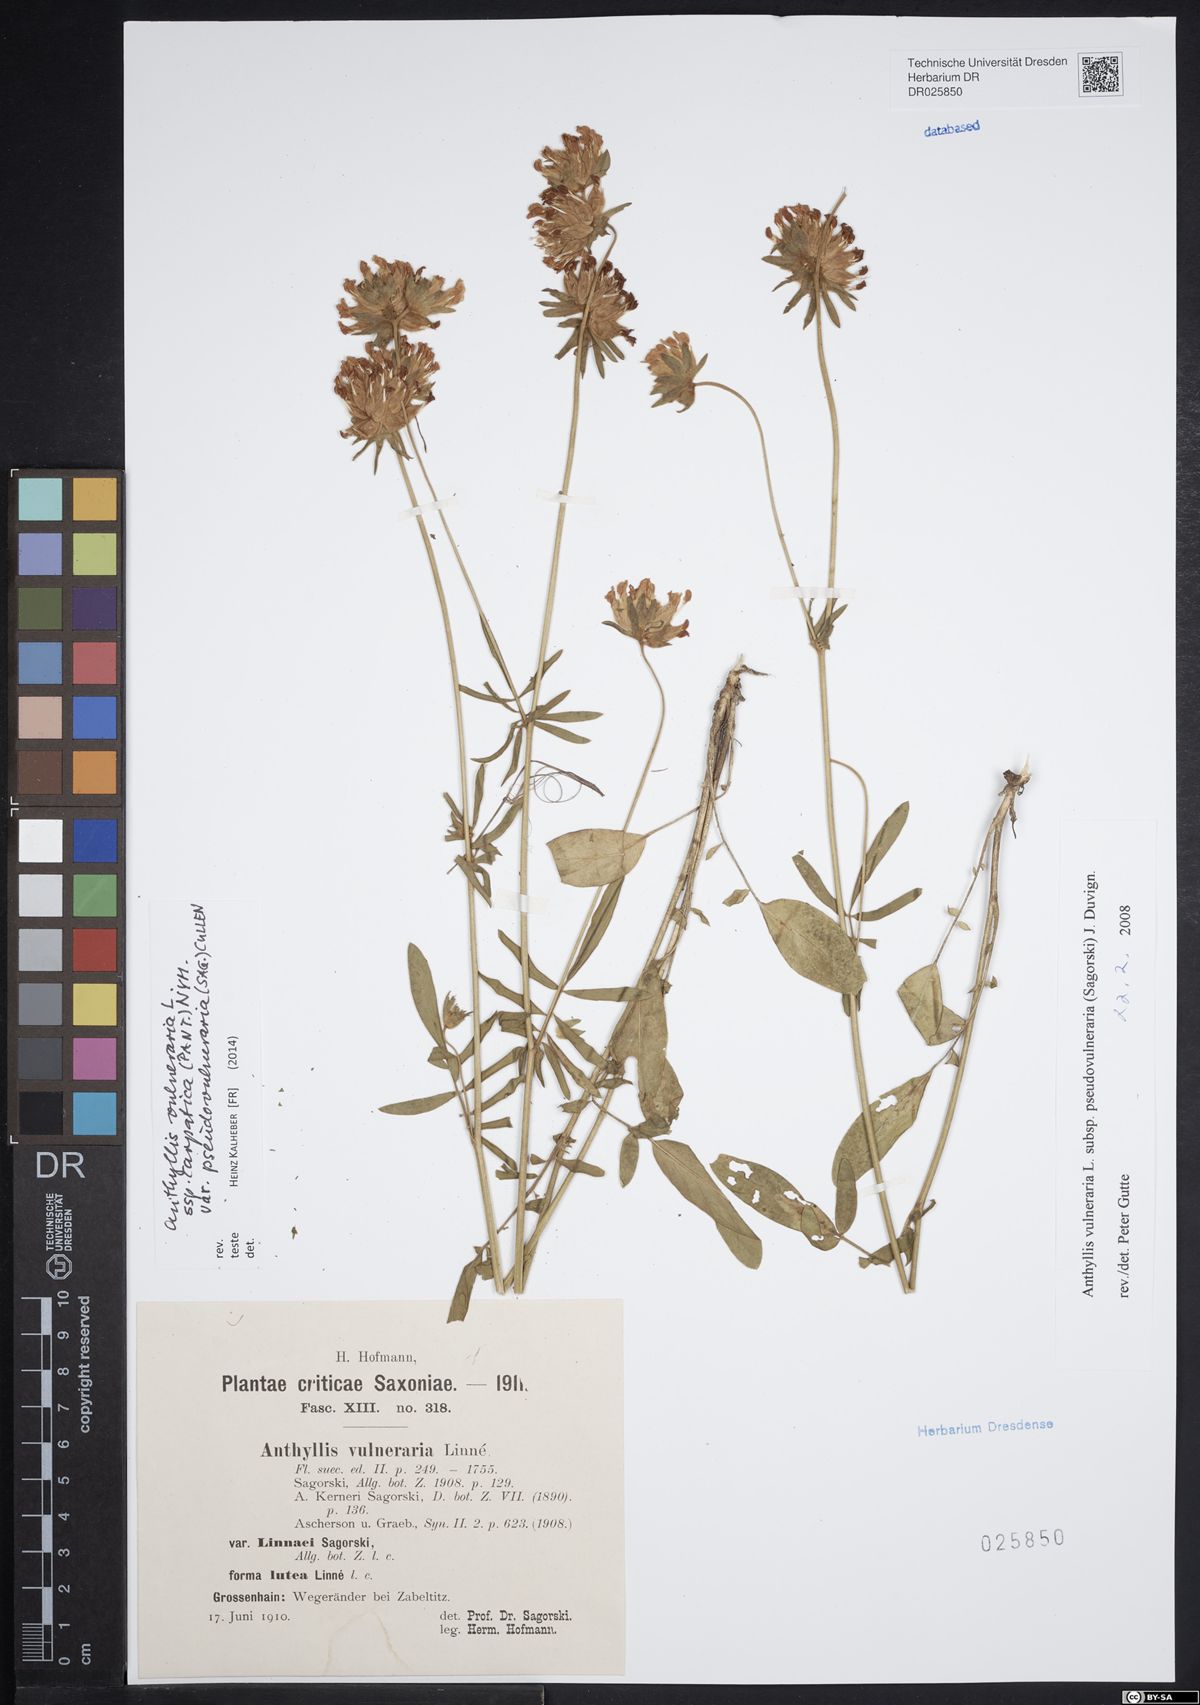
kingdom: Plantae
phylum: Tracheophyta
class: Magnoliopsida
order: Fabales
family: Fabaceae
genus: Anthyllis
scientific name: Anthyllis vulneraria
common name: Kidney vetch
